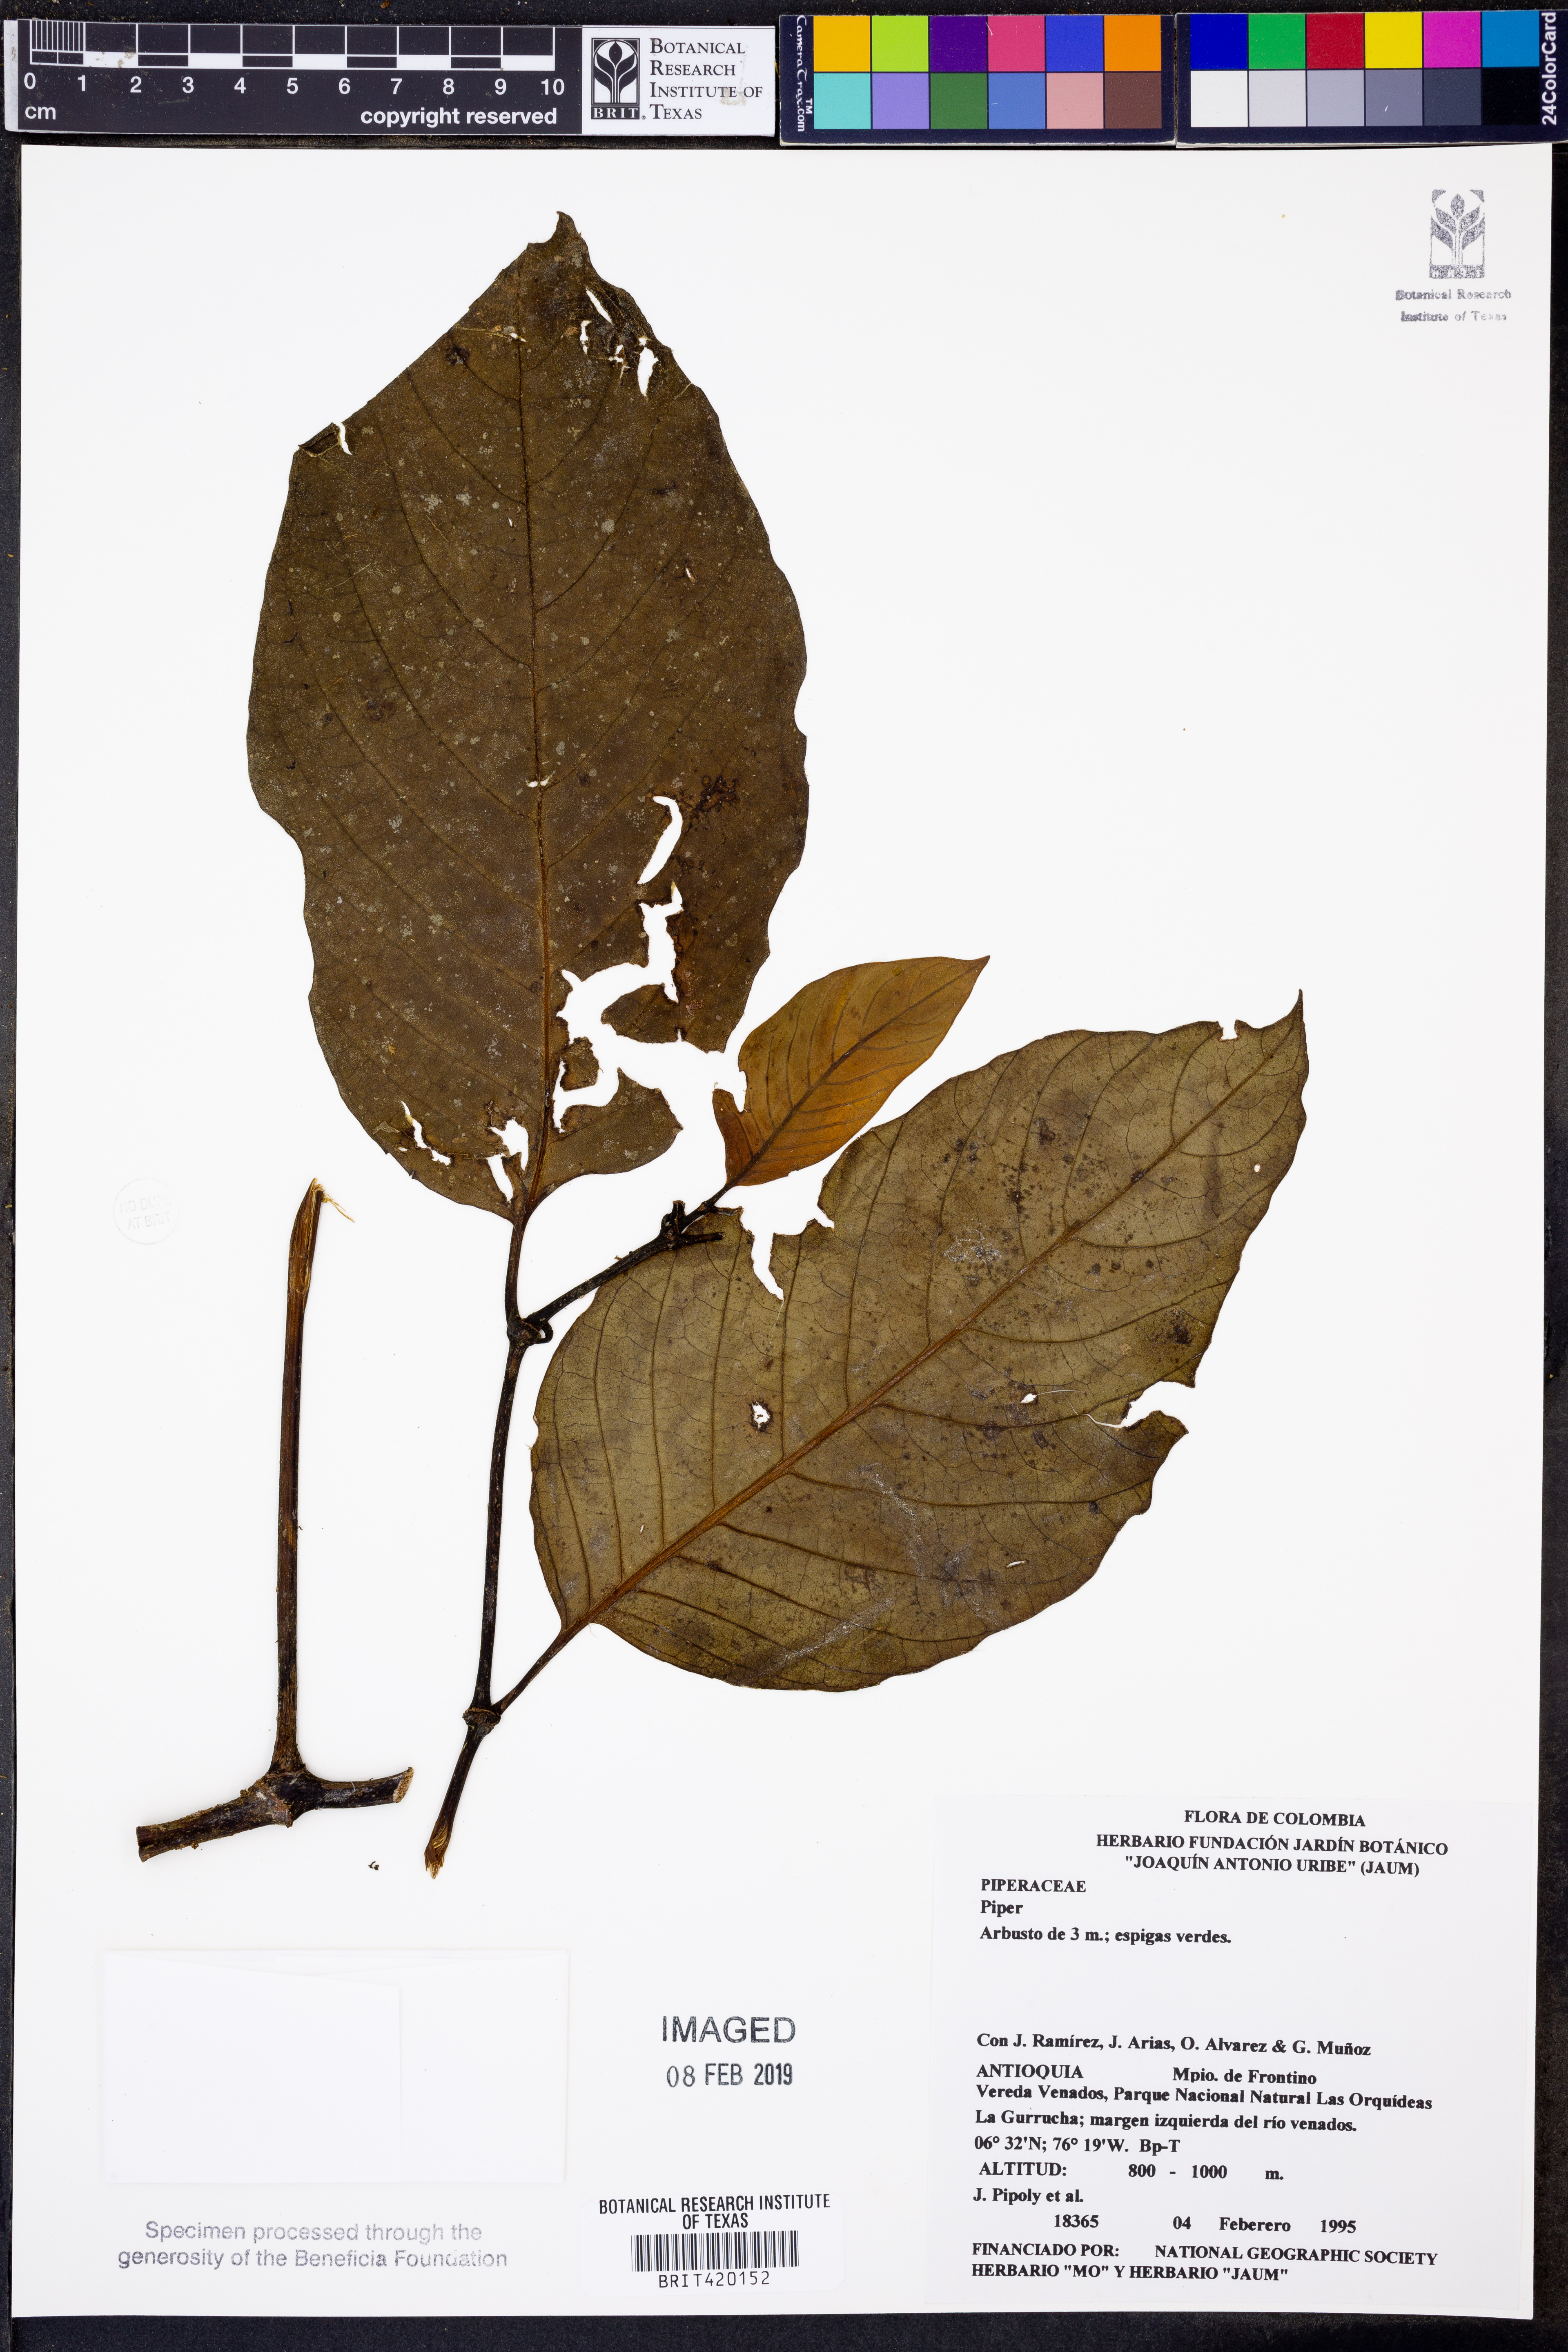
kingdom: Plantae
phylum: Tracheophyta
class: Magnoliopsida
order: Piperales
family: Piperaceae
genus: Piper
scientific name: Piper
